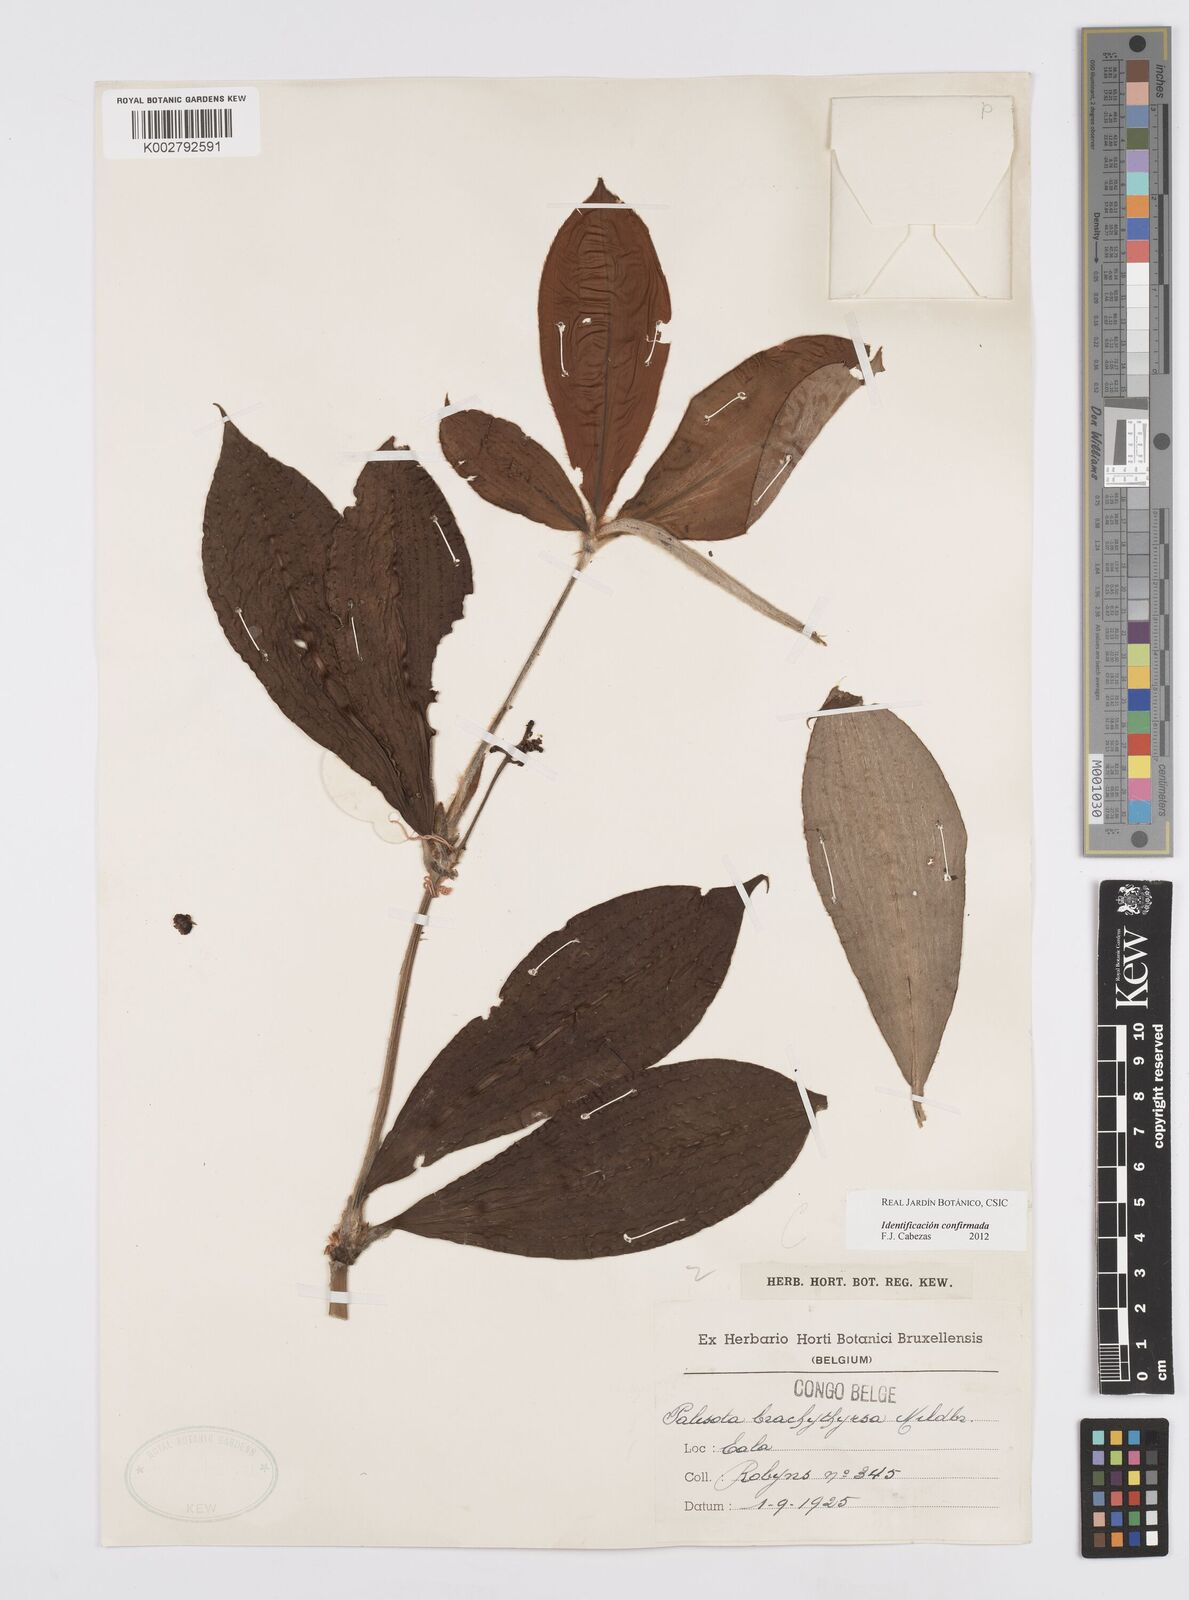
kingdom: Plantae
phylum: Tracheophyta
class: Liliopsida
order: Commelinales
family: Commelinaceae
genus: Palisota
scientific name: Palisota brachythyrsa
